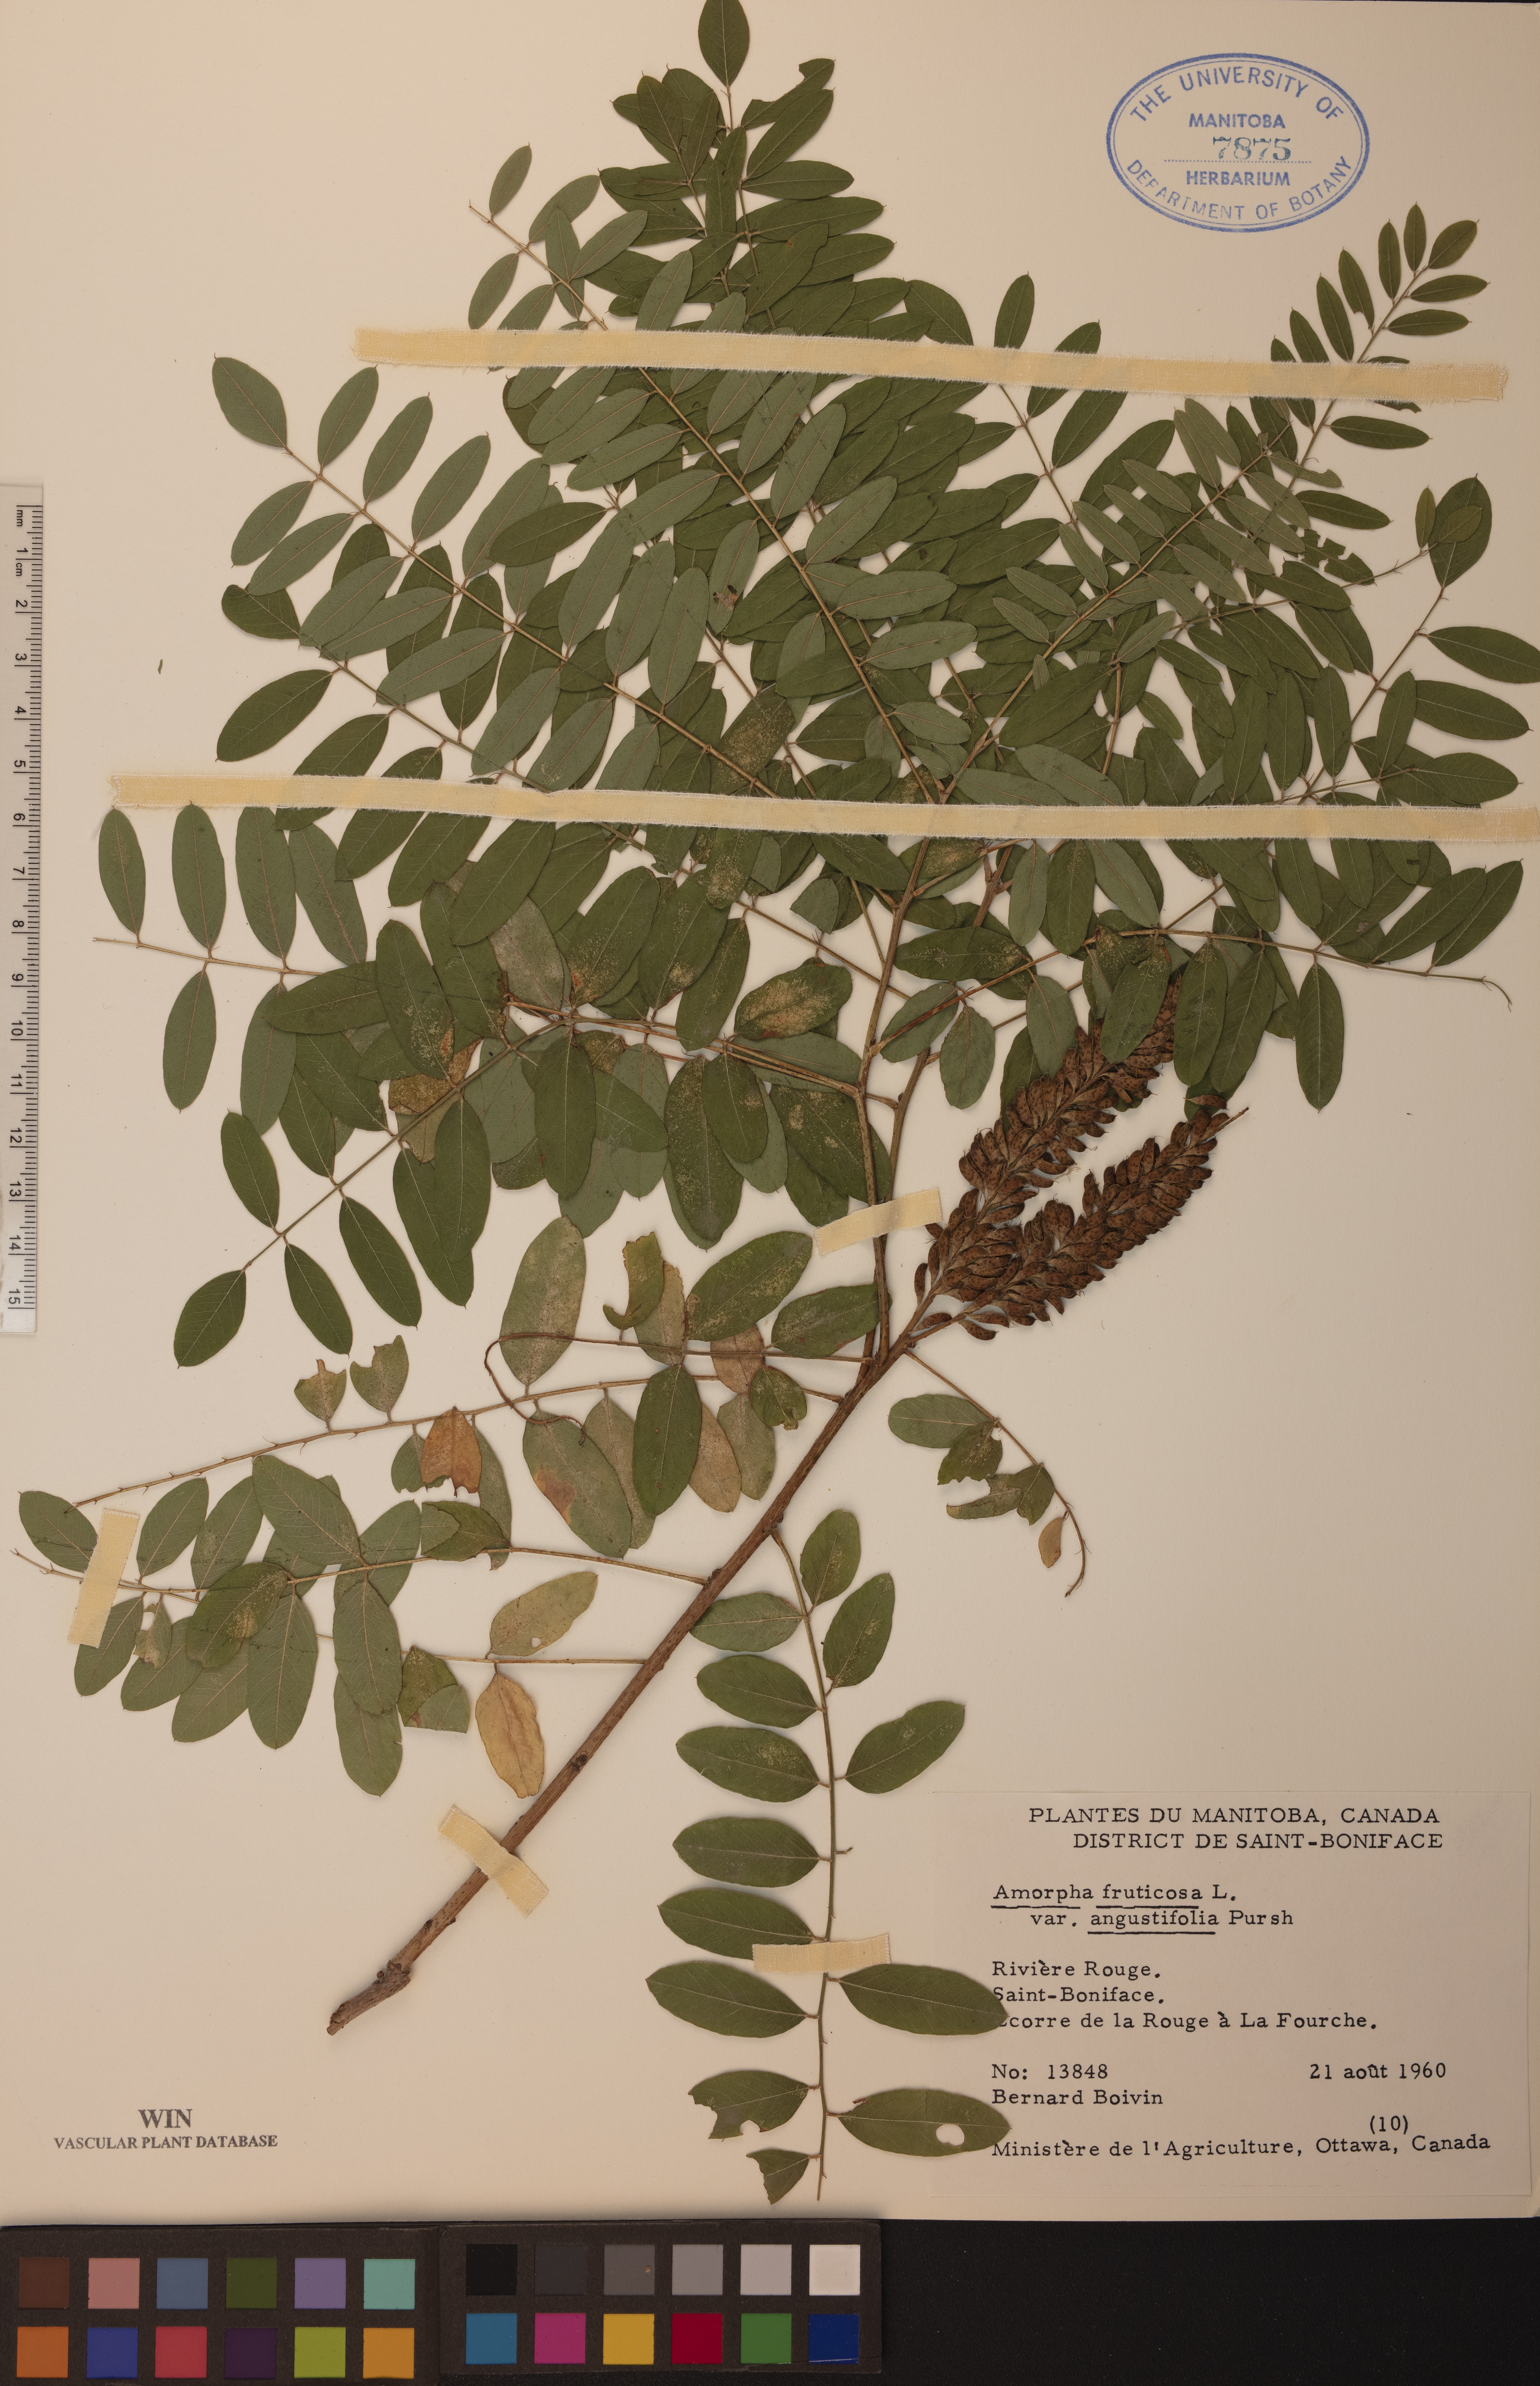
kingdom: Plantae
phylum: Tracheophyta
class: Magnoliopsida
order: Fabales
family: Fabaceae
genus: Amorpha
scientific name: Amorpha fruticosa
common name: False indigo
